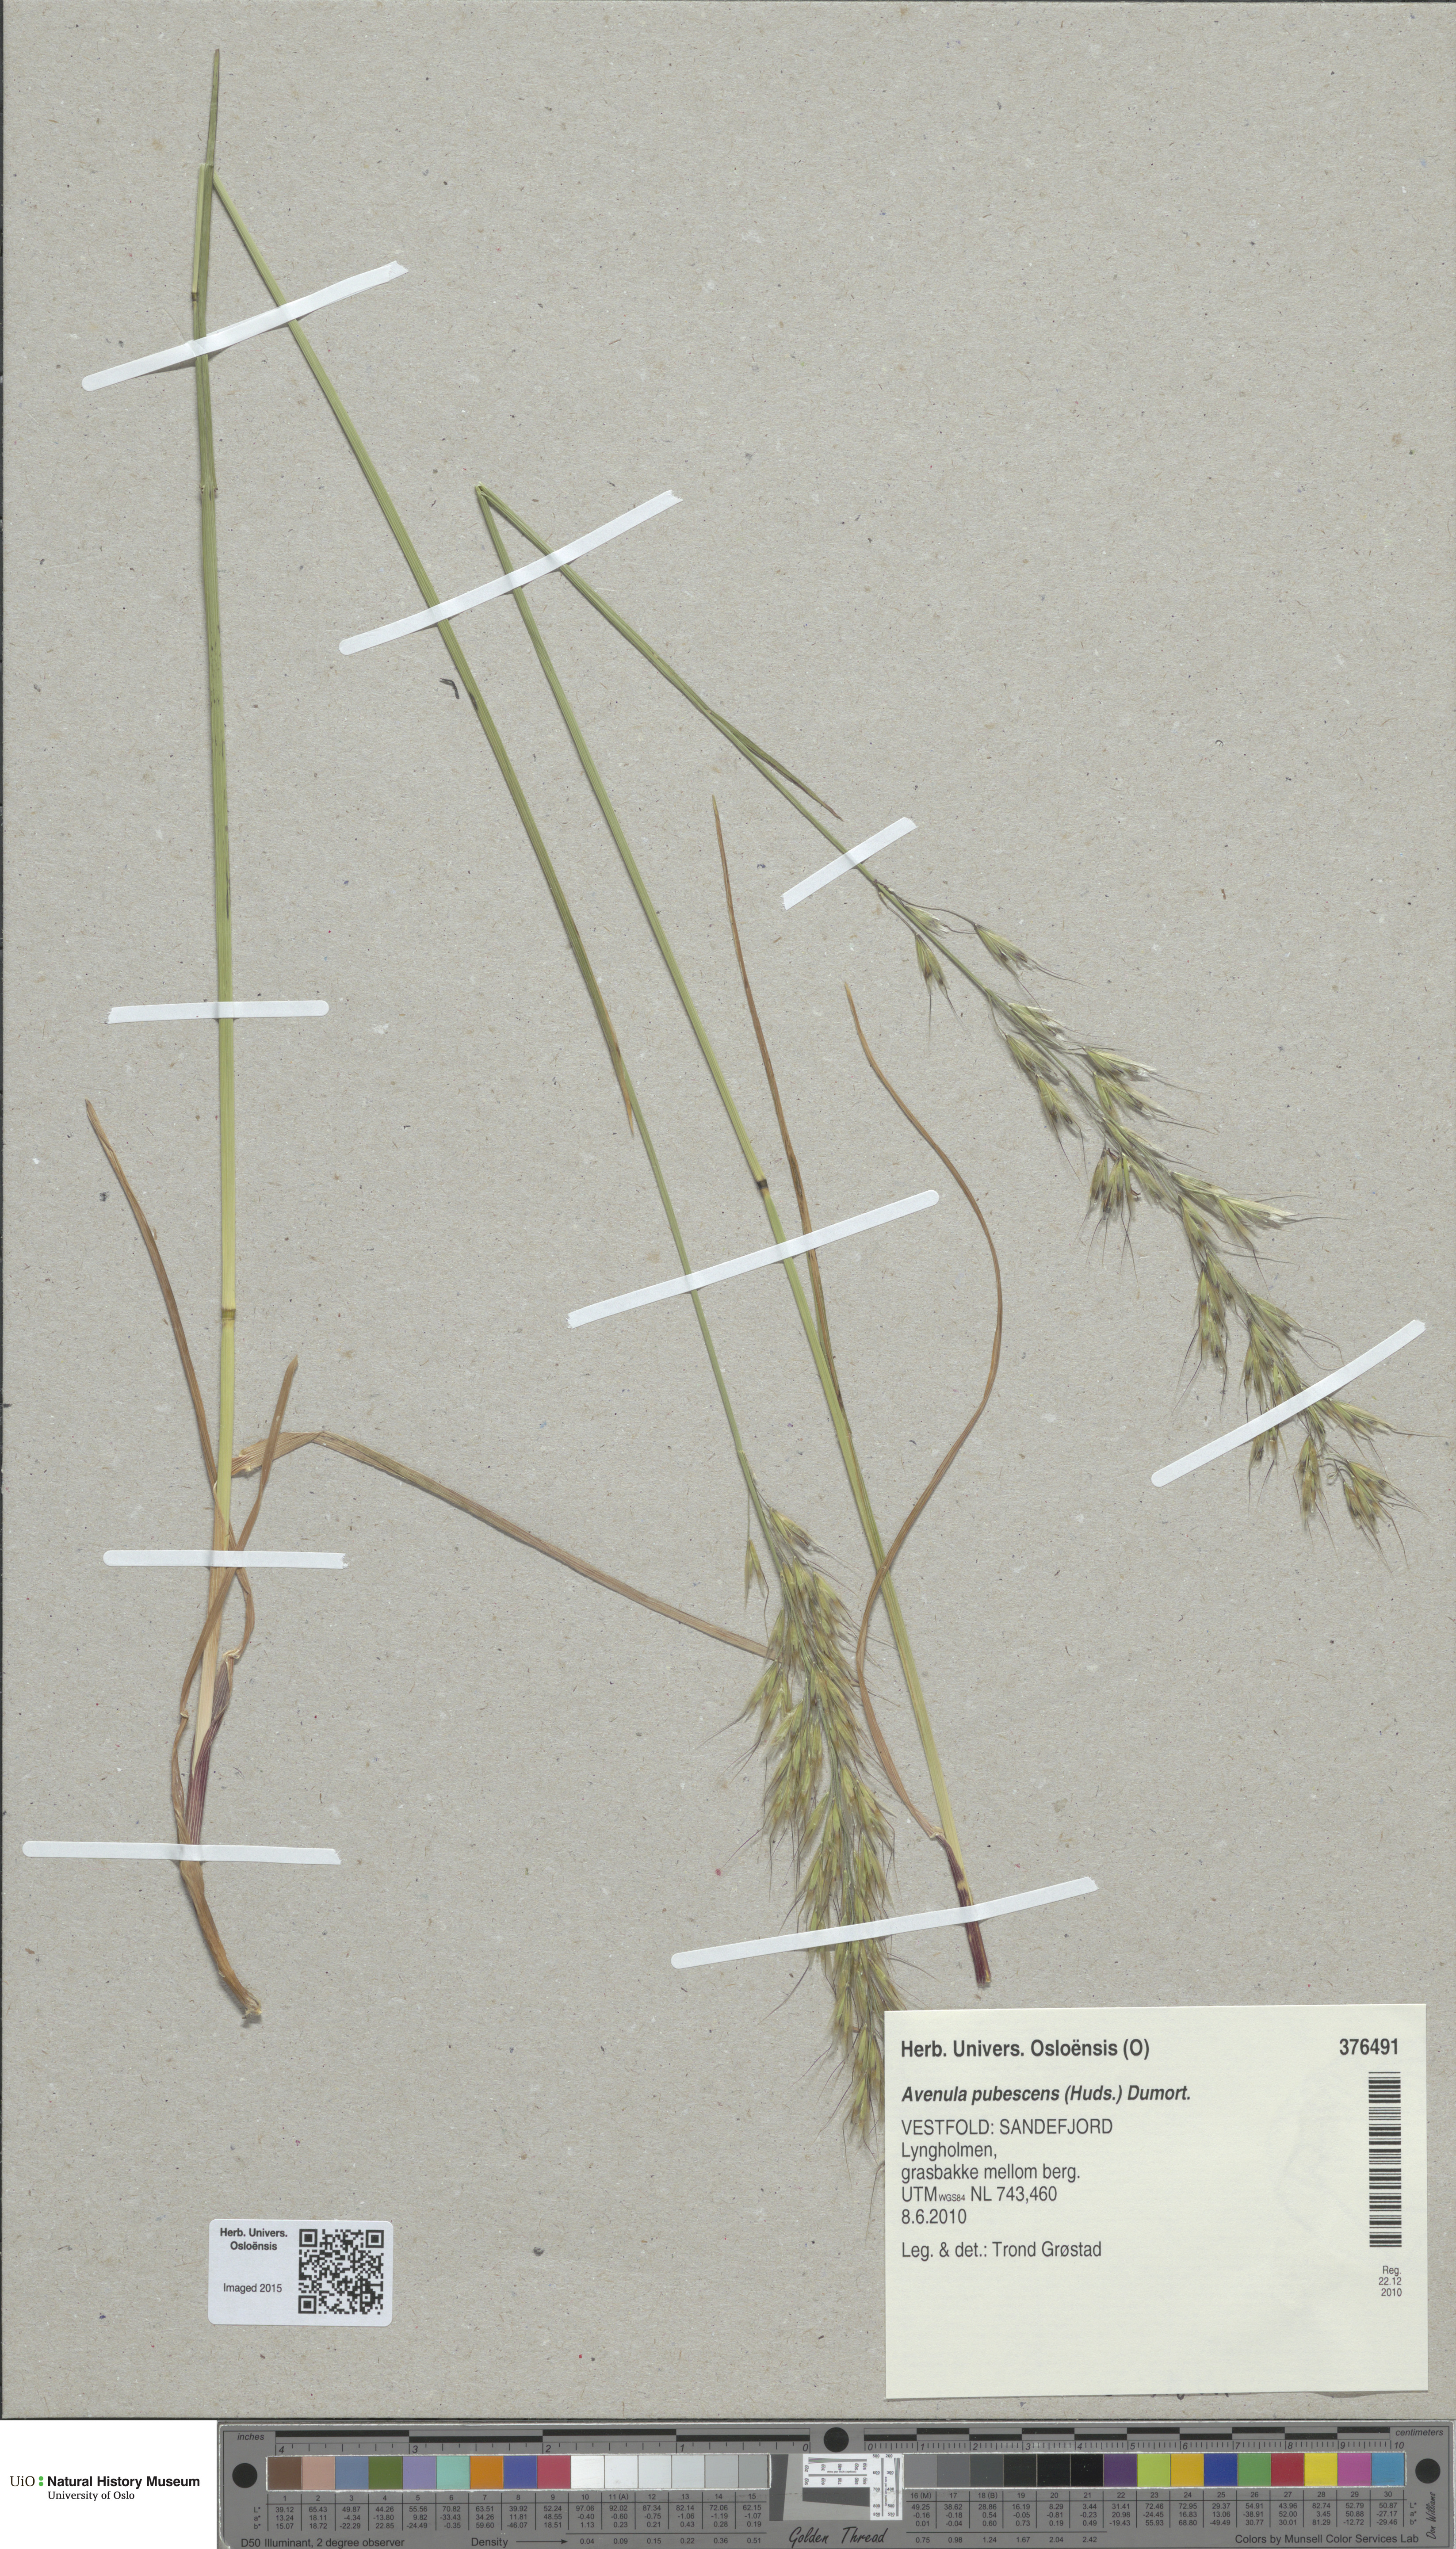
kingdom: Plantae
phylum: Tracheophyta
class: Liliopsida
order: Poales
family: Poaceae
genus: Avenula
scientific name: Avenula pubescens
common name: Downy alpine oatgrass
